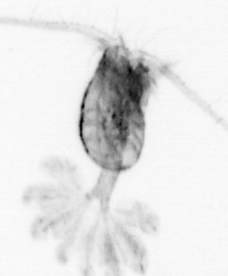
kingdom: Animalia
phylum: Arthropoda
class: Copepoda
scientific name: Copepoda
